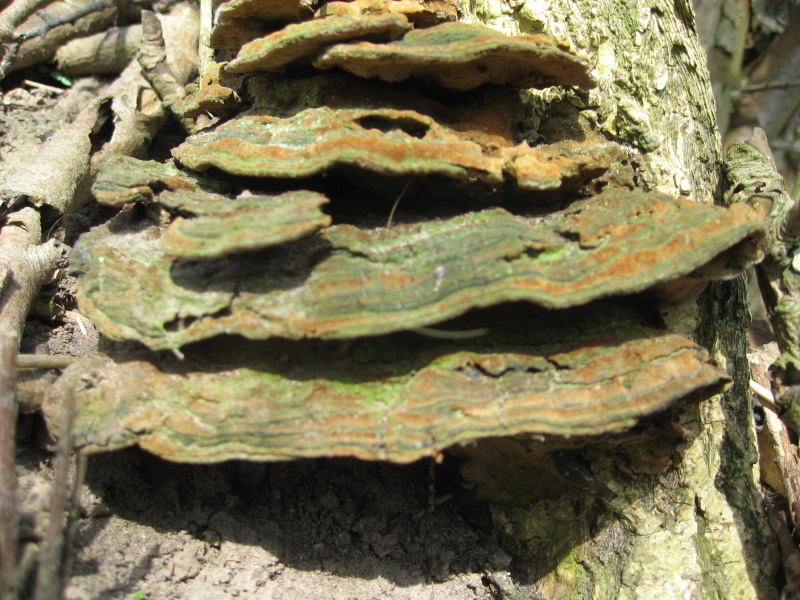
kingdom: Fungi
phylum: Basidiomycota
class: Agaricomycetes
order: Hymenochaetales
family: Hymenochaetaceae
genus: Phylloporia
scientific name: Phylloporia ribis
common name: ribs-ildporesvamp
